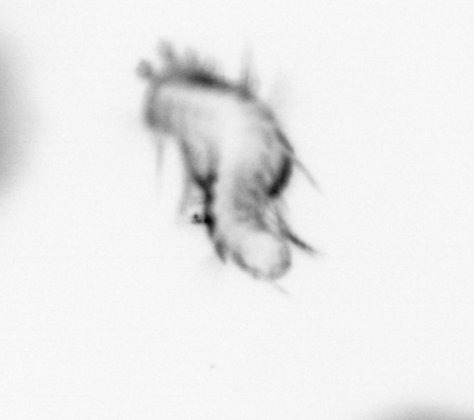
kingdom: Animalia
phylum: Annelida
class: Polychaeta
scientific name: Polychaeta
